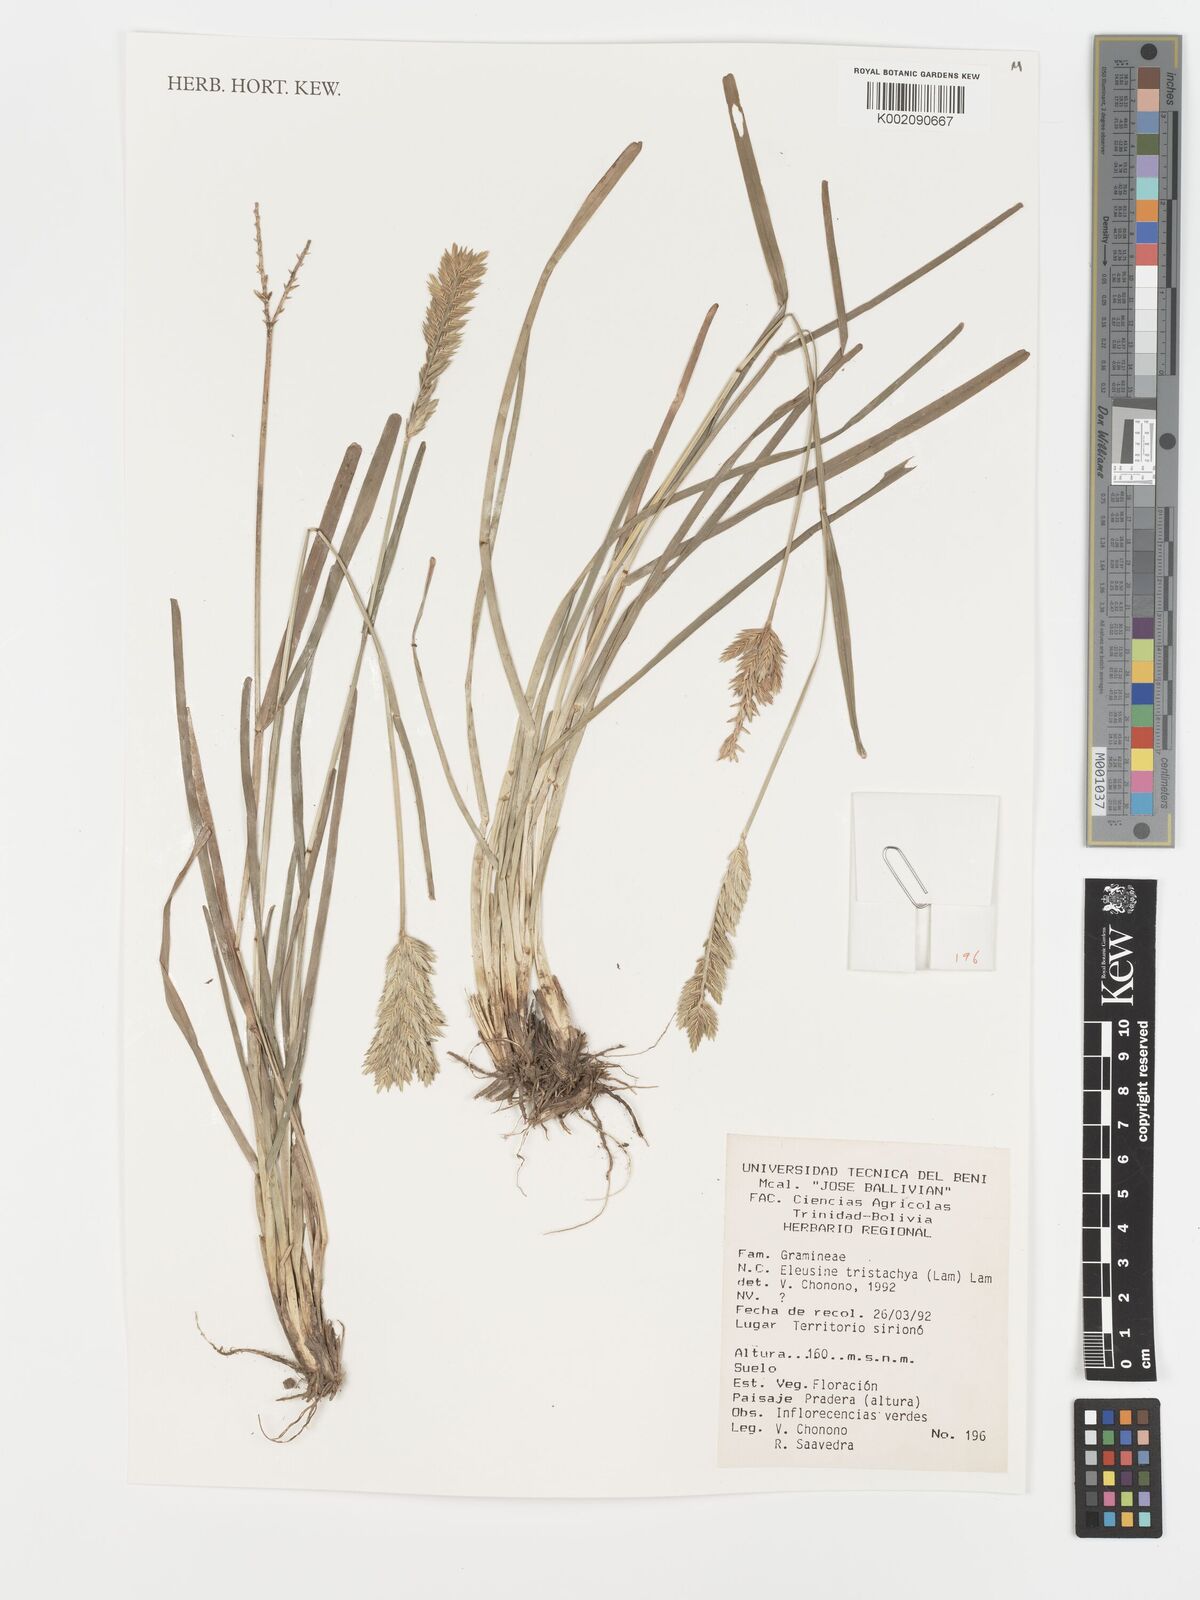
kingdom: Plantae
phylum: Tracheophyta
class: Liliopsida
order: Poales
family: Poaceae
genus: Eleusine
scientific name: Eleusine tristachya
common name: American yard-grass
